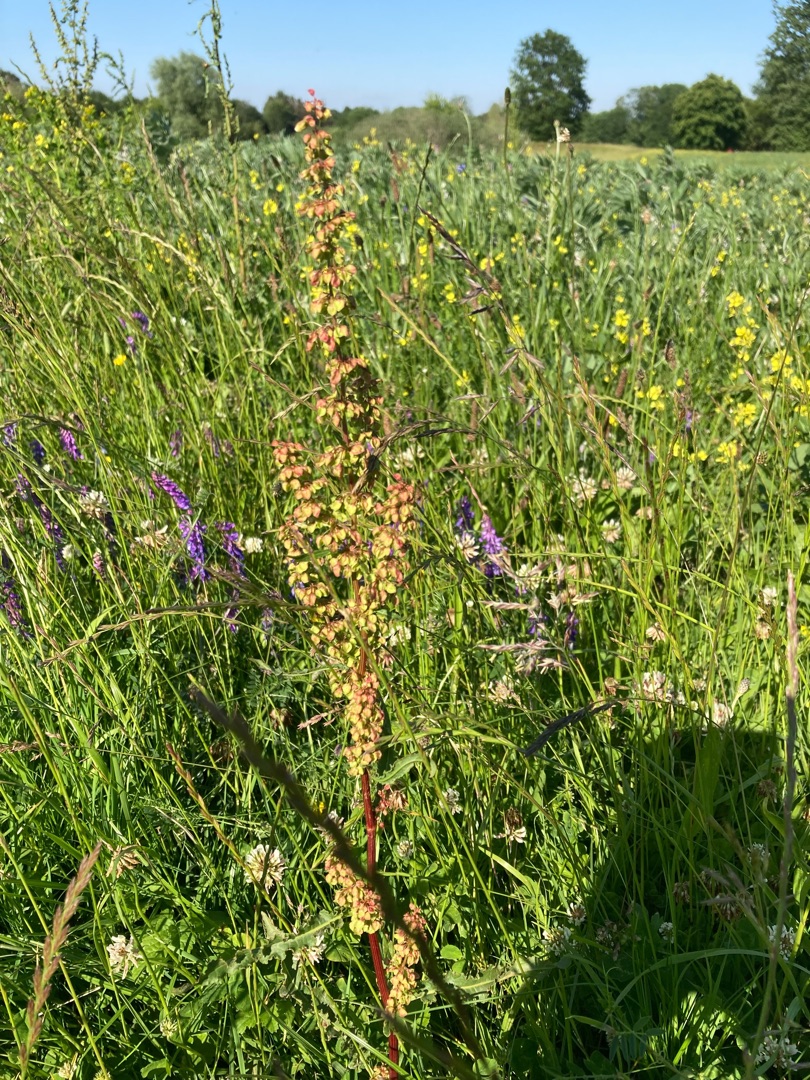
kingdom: Plantae
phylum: Tracheophyta
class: Magnoliopsida
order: Caryophyllales
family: Polygonaceae
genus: Rumex
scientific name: Rumex crispus
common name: Kruset skræppe
